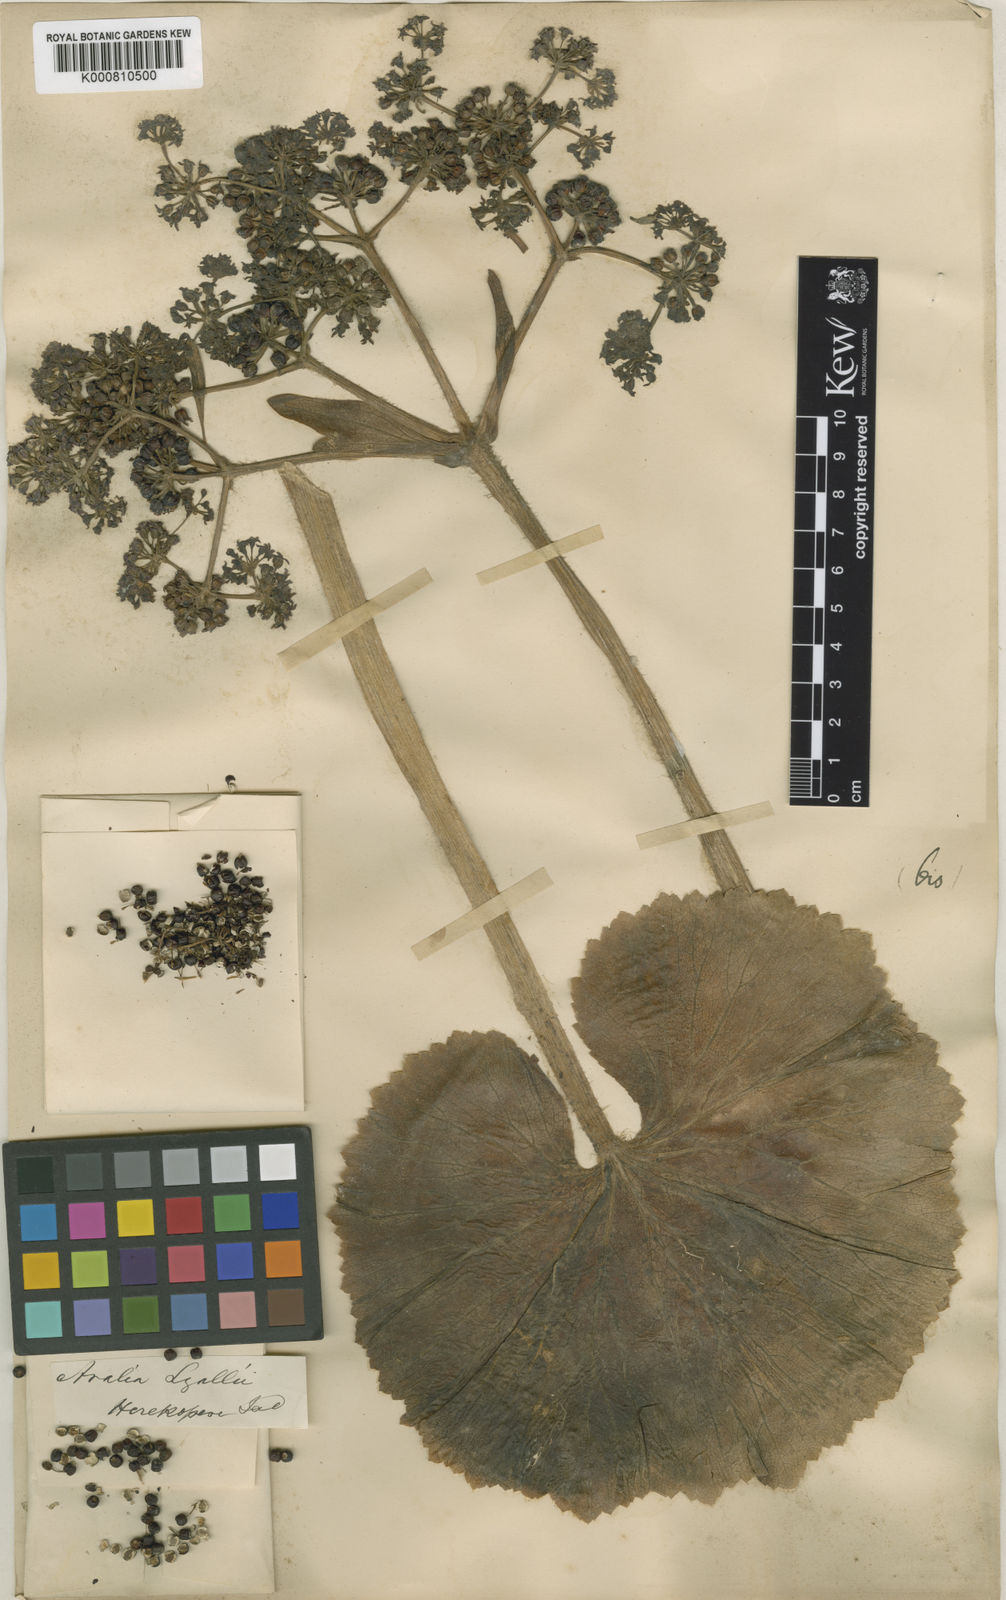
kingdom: Plantae
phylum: Tracheophyta
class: Magnoliopsida
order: Apiales
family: Apiaceae
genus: Azorella
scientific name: Azorella lyallii
